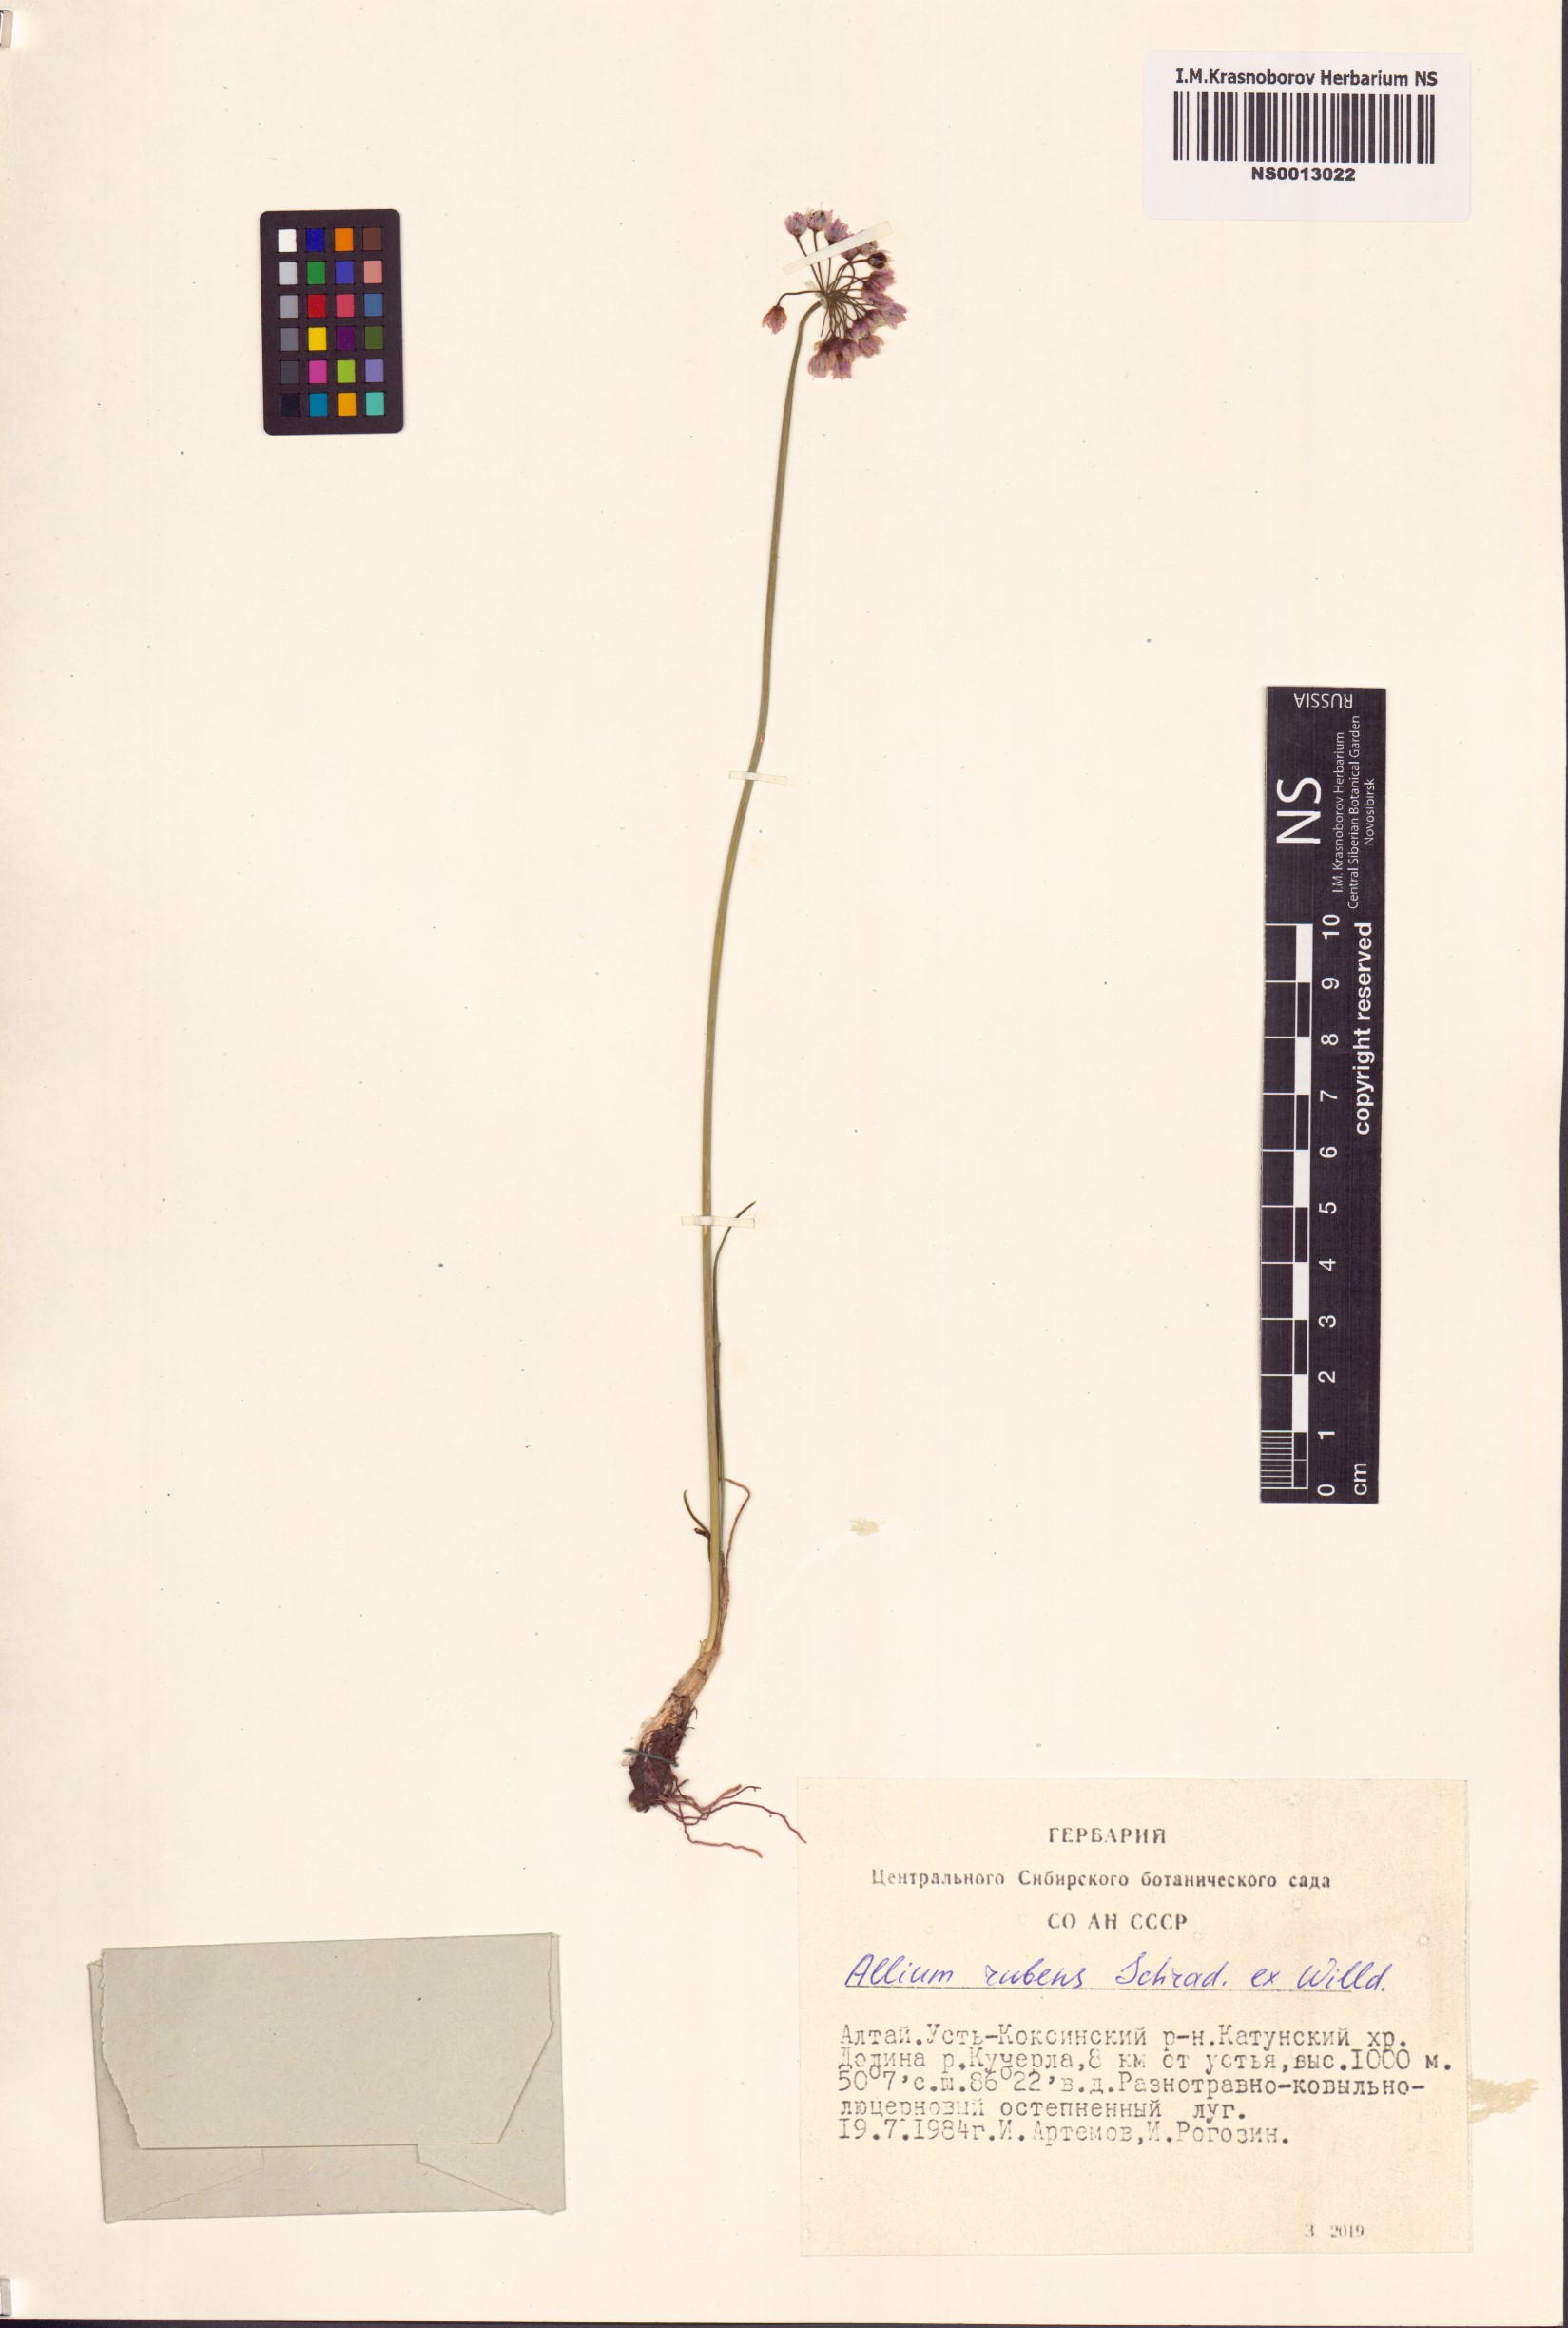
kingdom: Plantae
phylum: Tracheophyta
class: Liliopsida
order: Asparagales
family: Amaryllidaceae
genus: Allium
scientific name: Allium rubens
